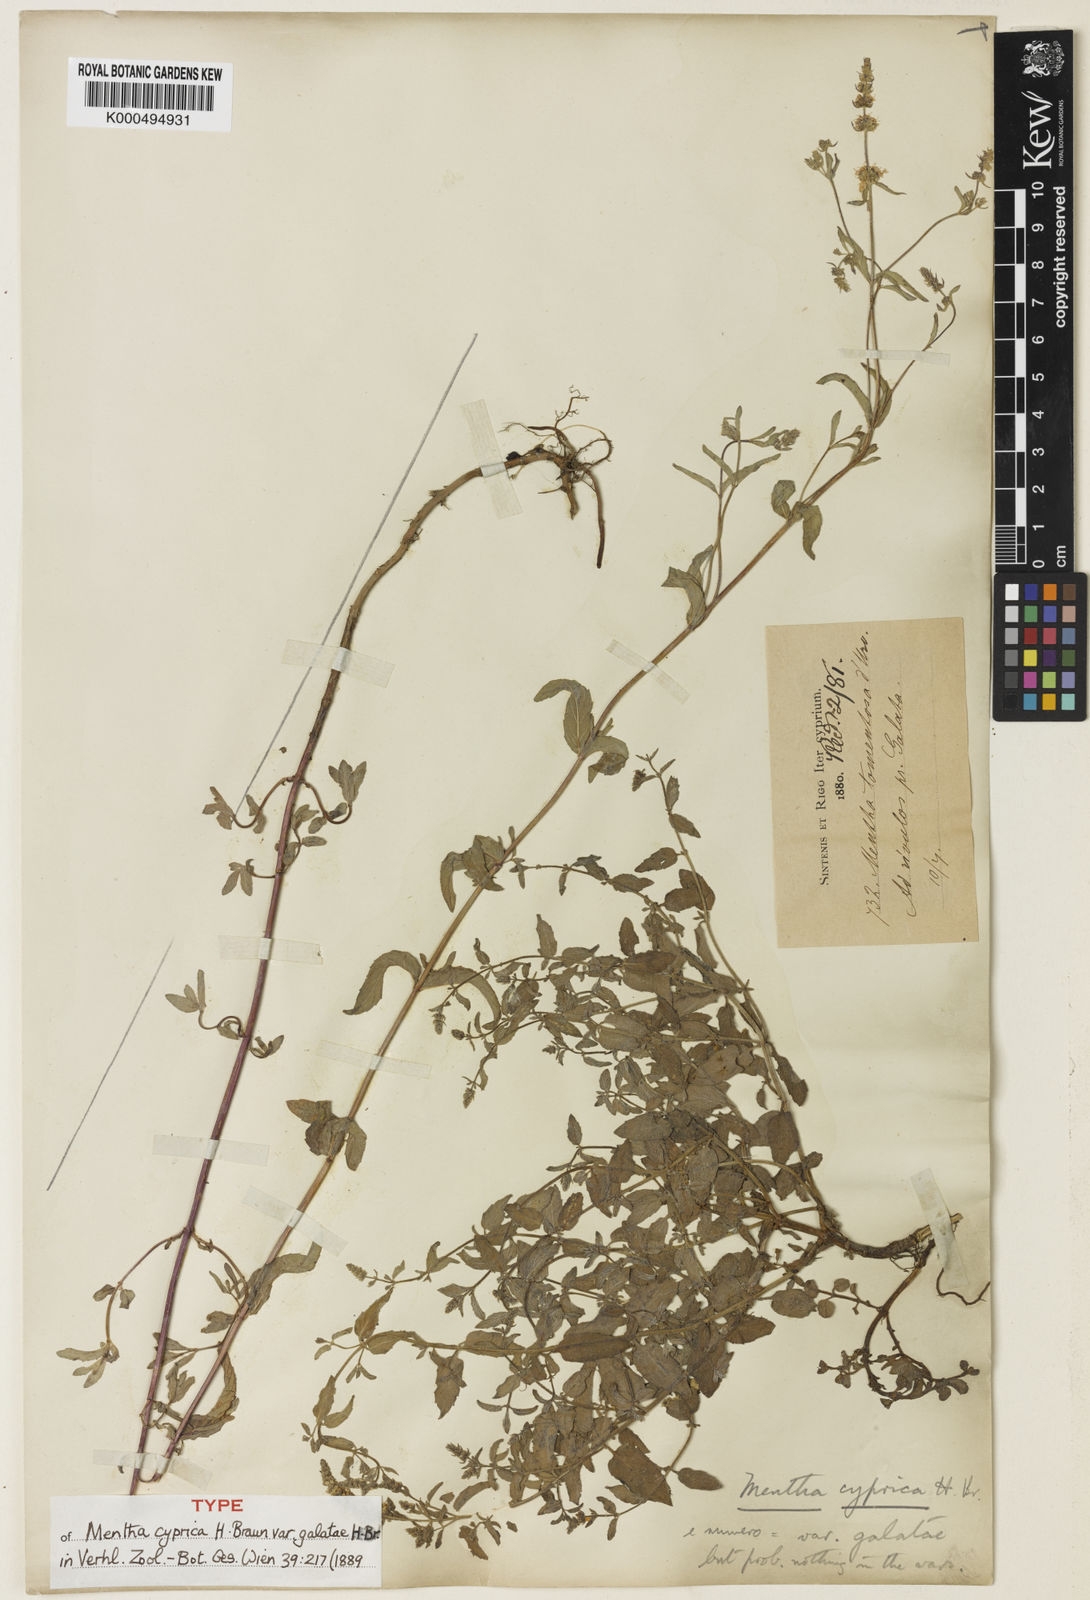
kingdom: Plantae
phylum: Tracheophyta
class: Magnoliopsida
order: Lamiales
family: Lamiaceae
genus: Mentha
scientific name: Mentha
